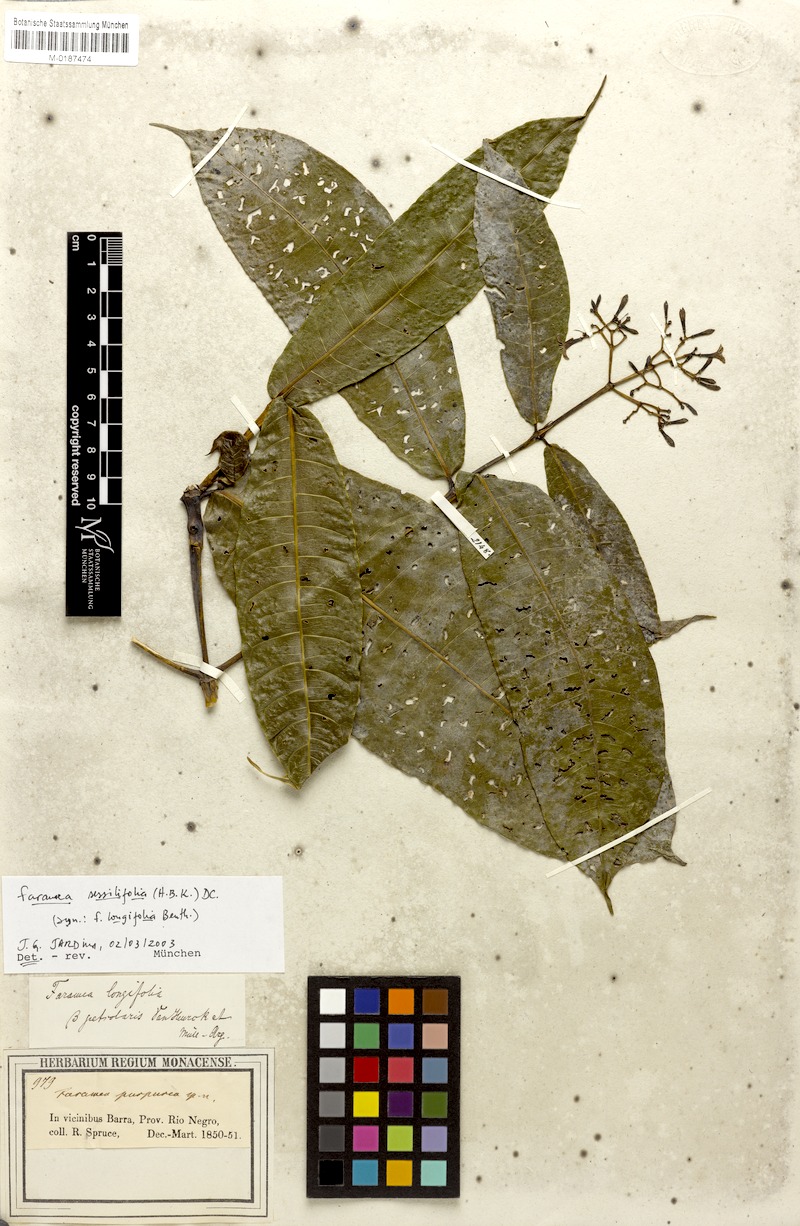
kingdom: Plantae
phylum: Tracheophyta
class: Magnoliopsida
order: Gentianales
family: Rubiaceae
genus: Faramea
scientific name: Faramea sessilifolia
